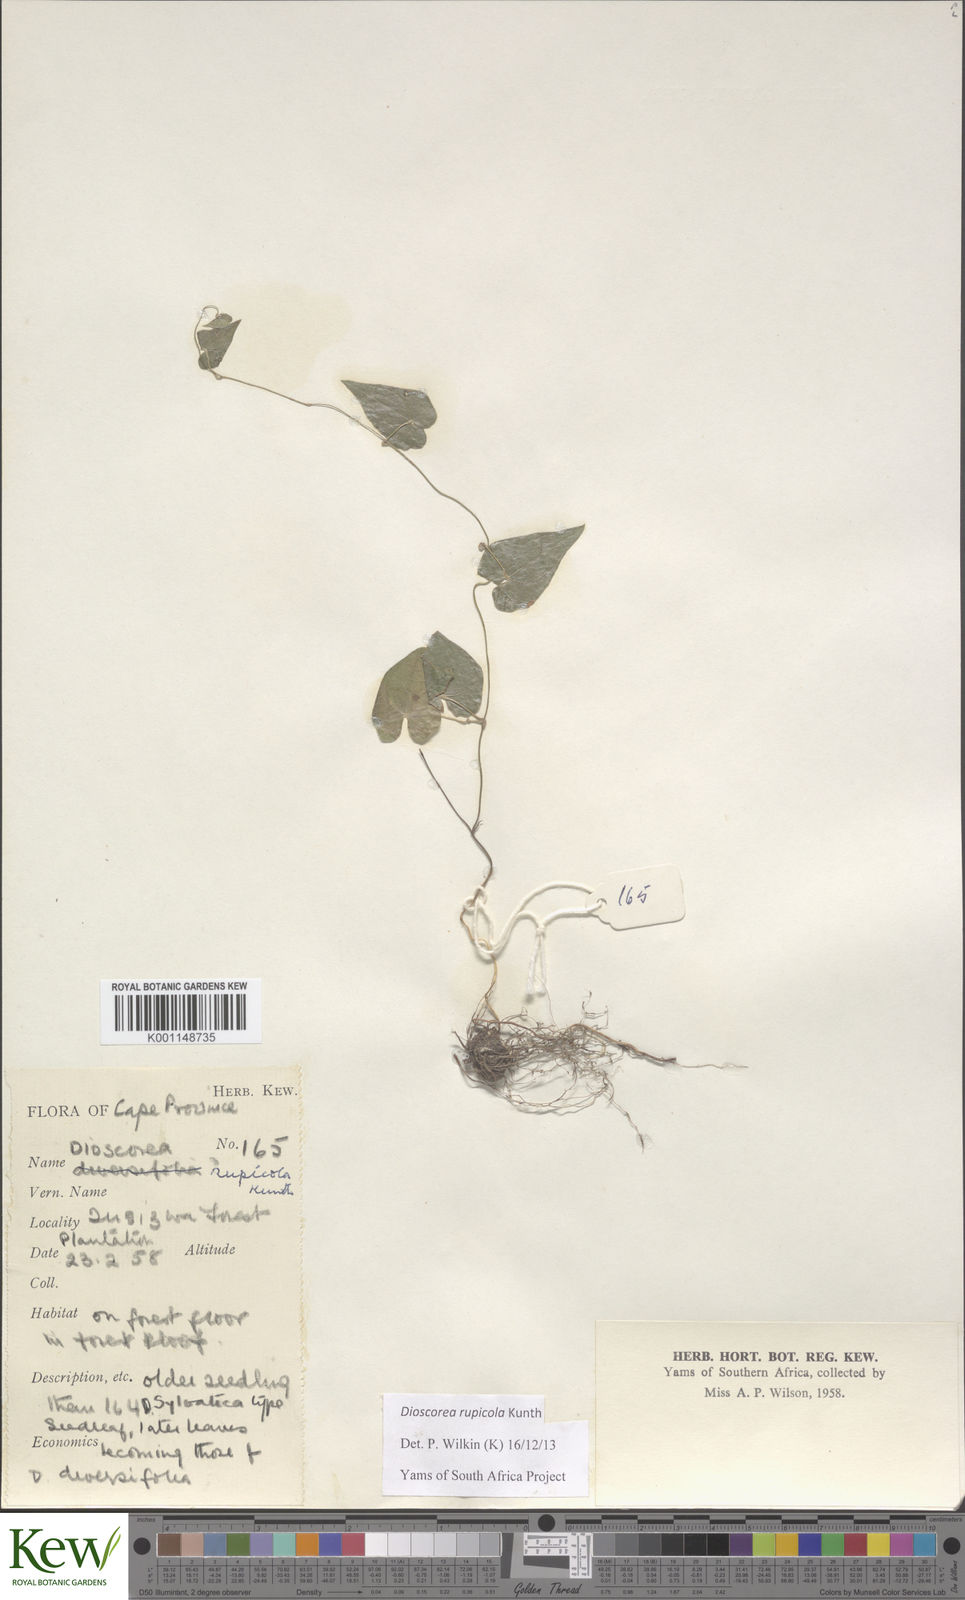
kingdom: Plantae
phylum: Tracheophyta
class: Liliopsida
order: Dioscoreales
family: Dioscoreaceae
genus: Dioscorea
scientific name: Dioscorea rupicola
